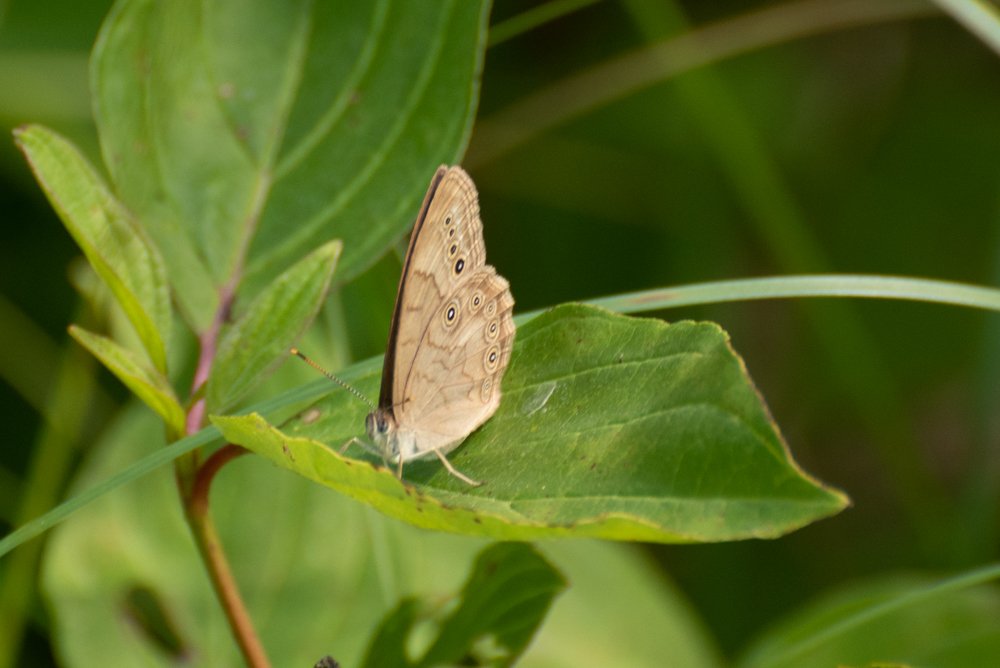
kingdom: Animalia
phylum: Arthropoda
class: Insecta
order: Lepidoptera
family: Nymphalidae
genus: Lethe
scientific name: Lethe
